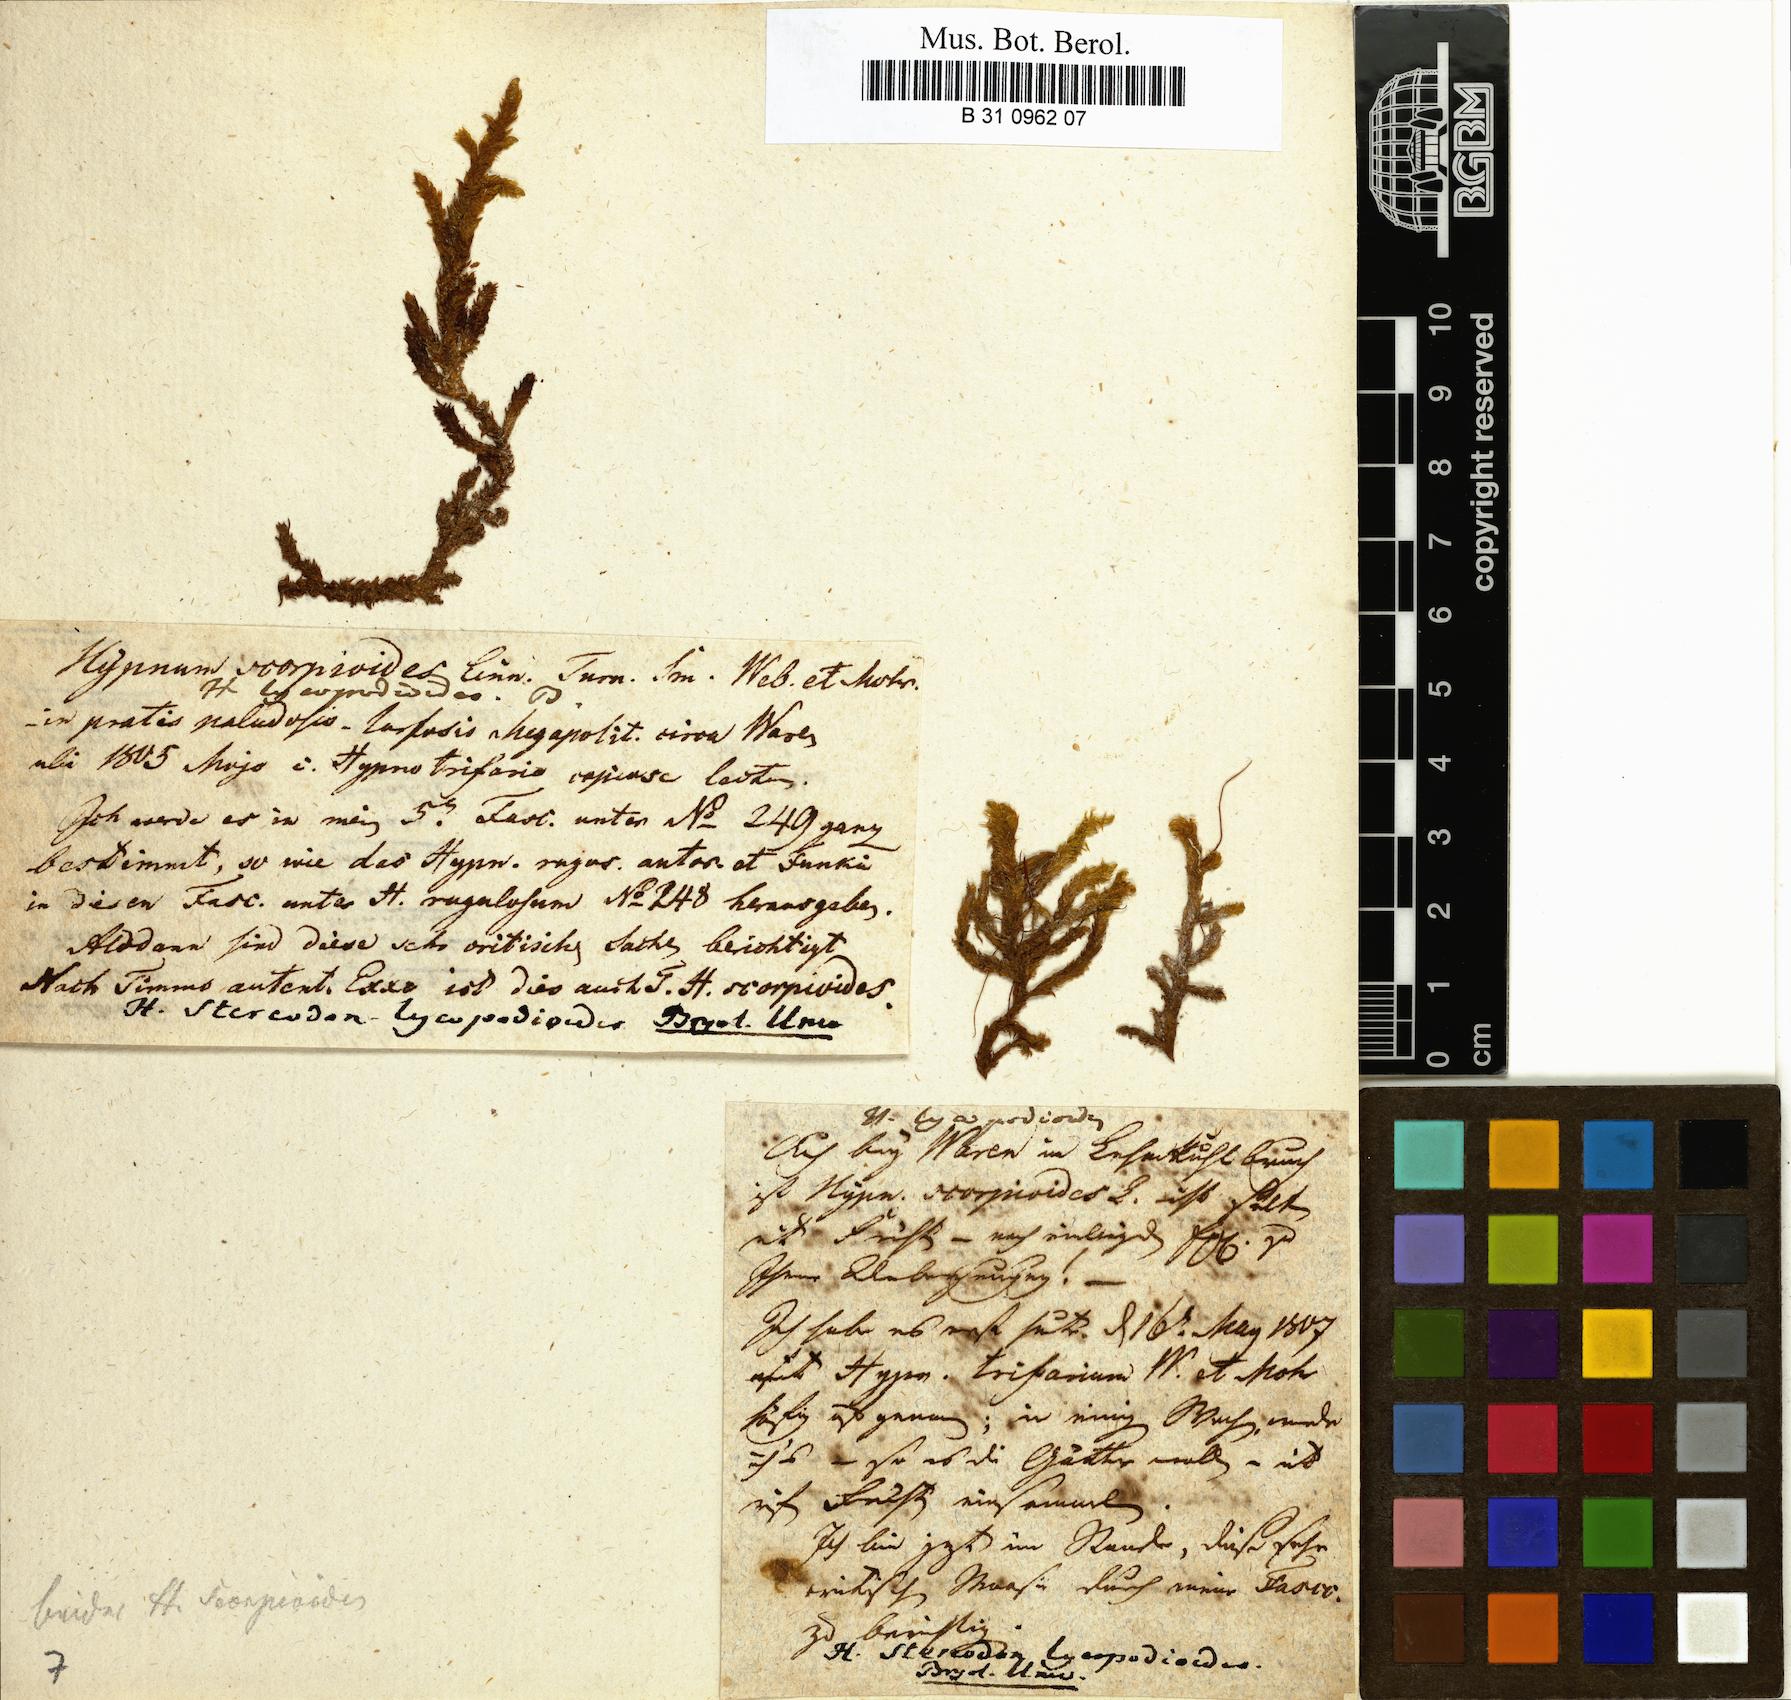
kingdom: Plantae
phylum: Bryophyta
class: Bryopsida
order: Hypnales
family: Scorpidiaceae
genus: Scorpidium
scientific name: Scorpidium scorpioides
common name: Hooked scorpion moss
